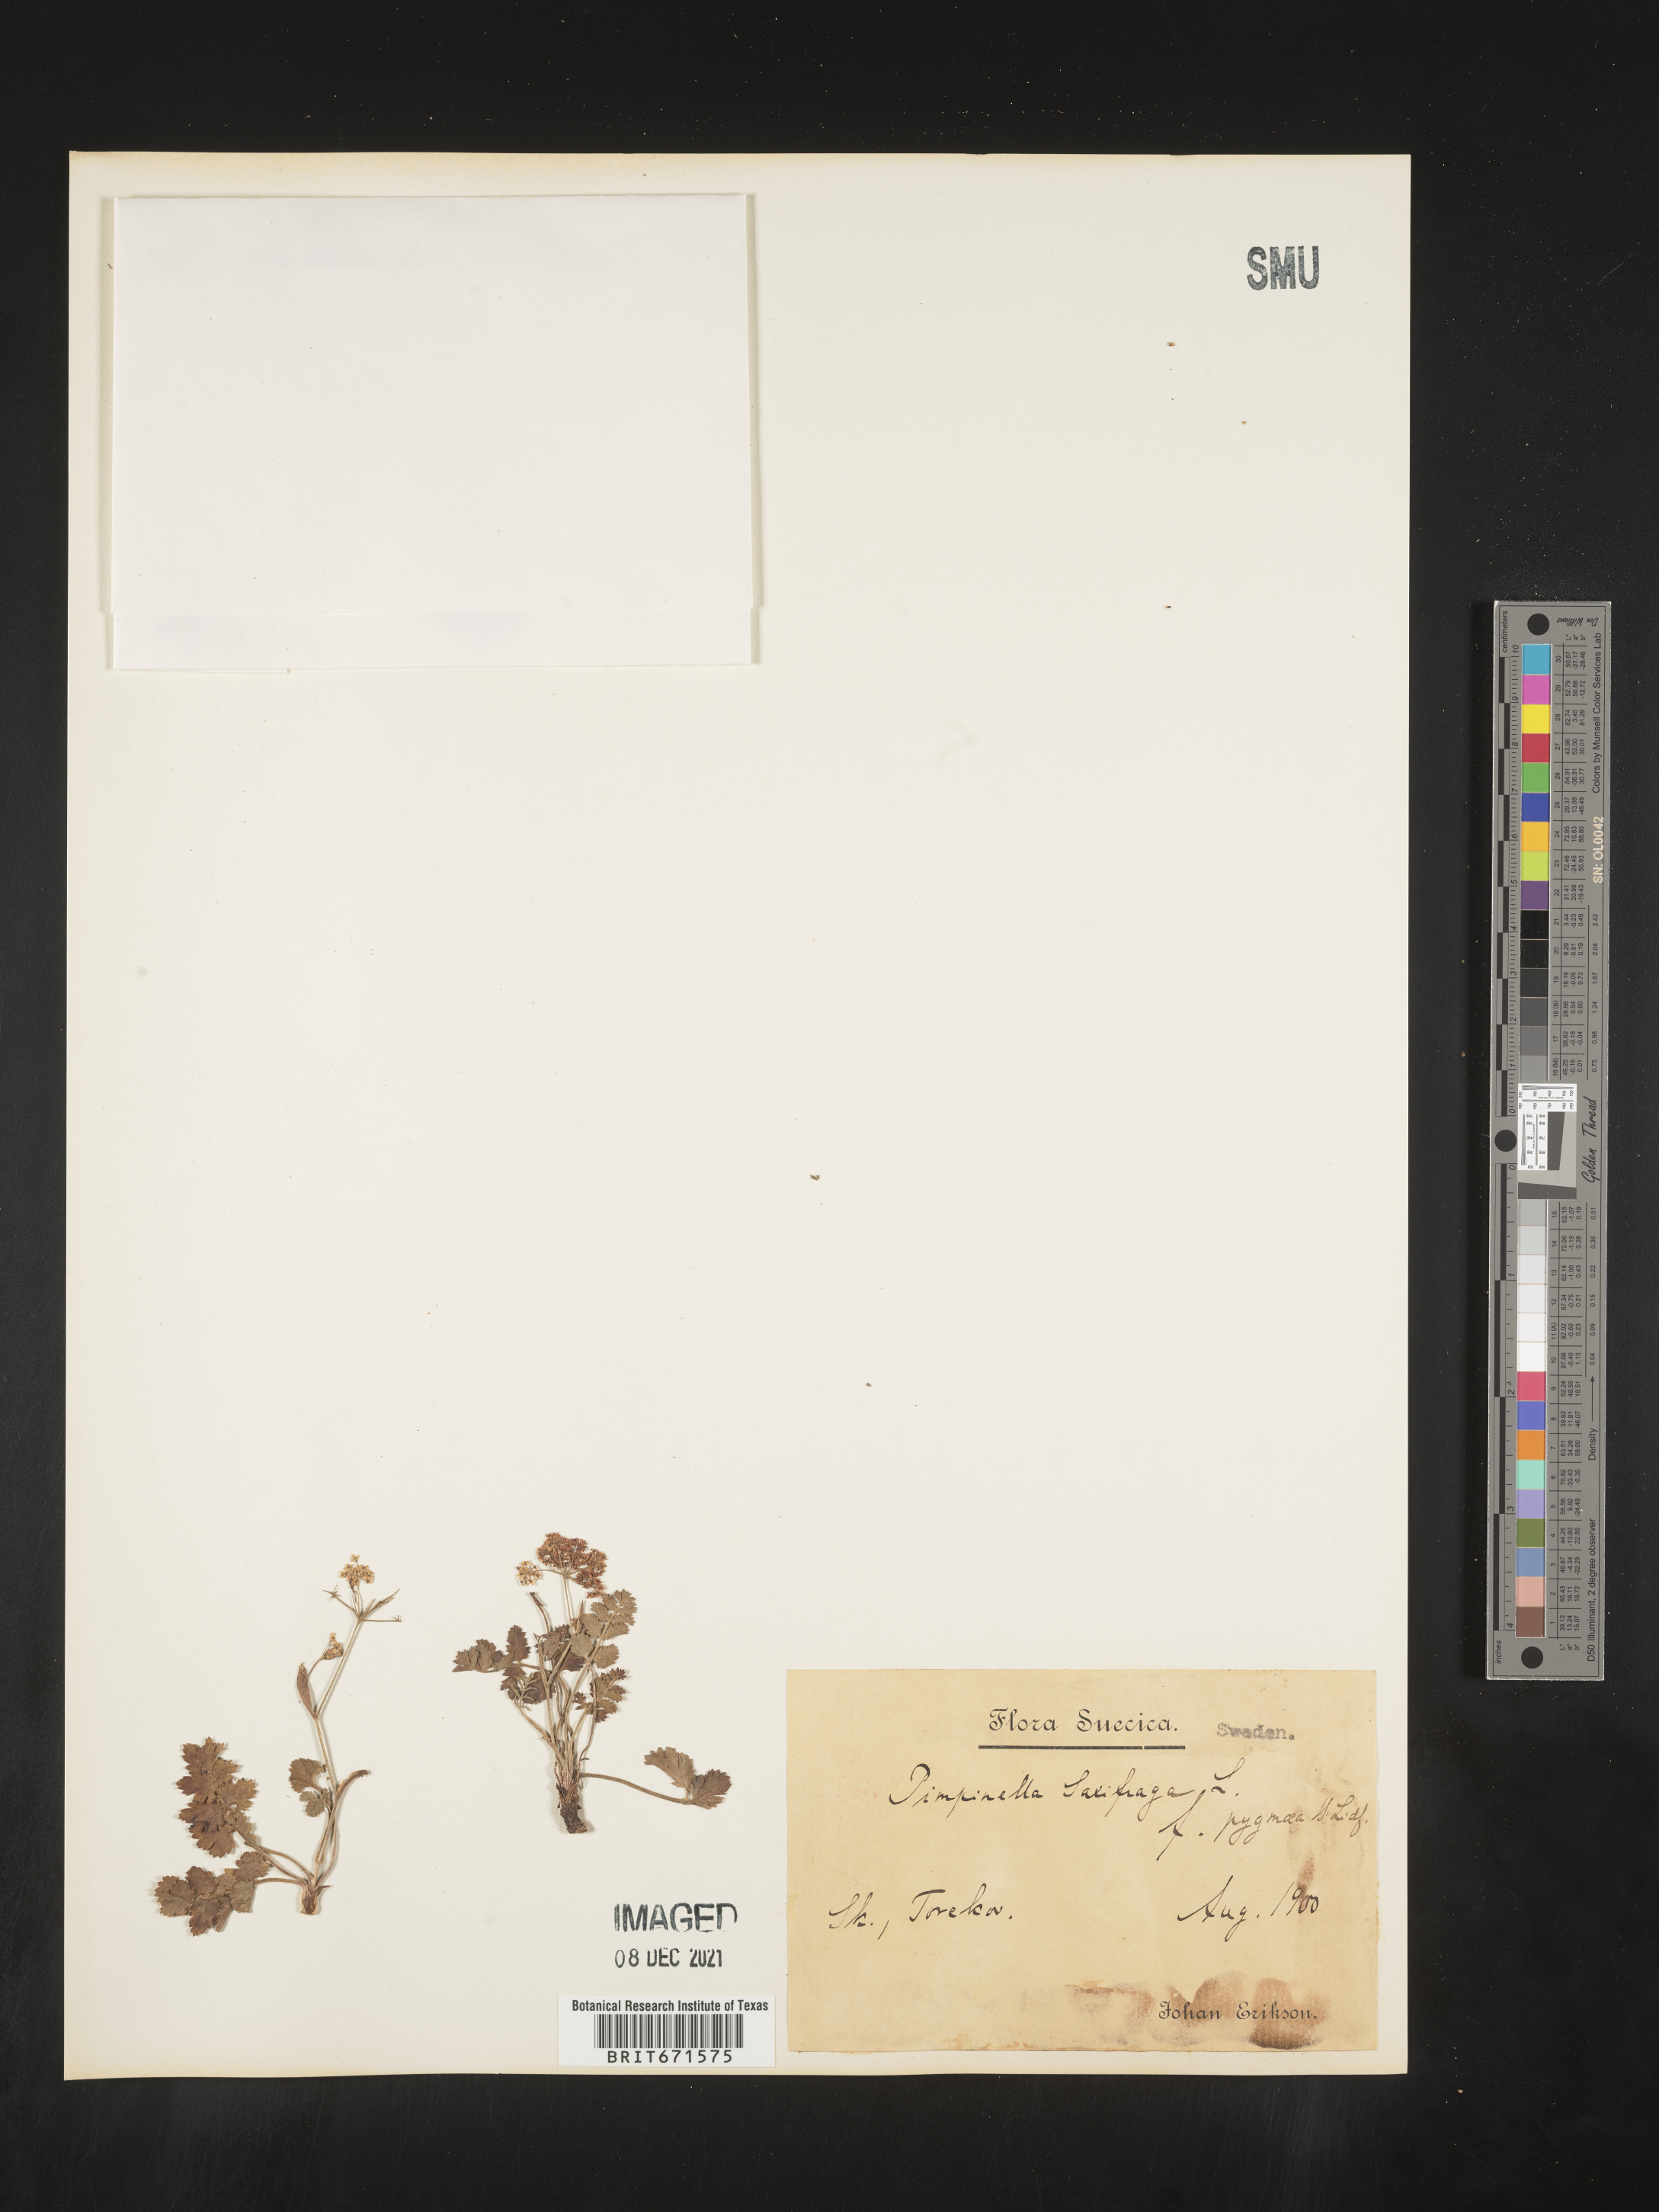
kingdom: Plantae
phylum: Tracheophyta
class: Magnoliopsida
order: Apiales
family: Apiaceae
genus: Pimpinella
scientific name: Pimpinella
